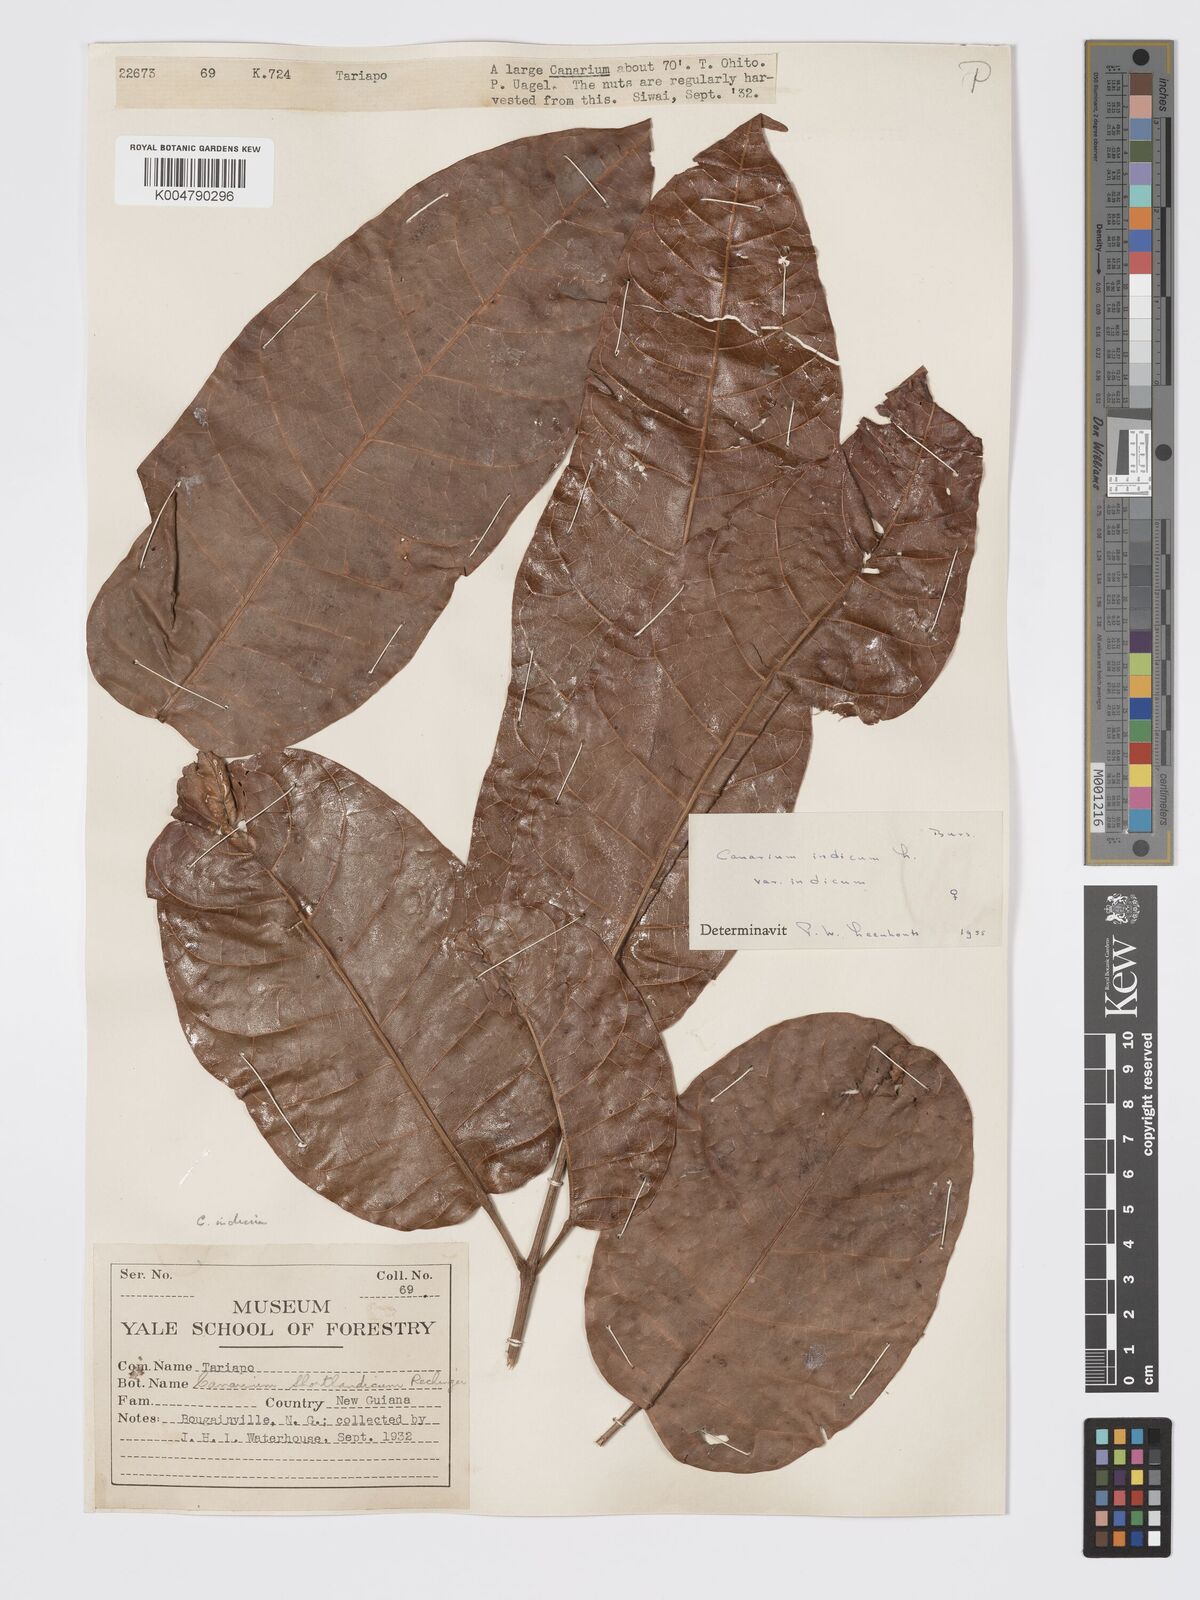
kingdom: Plantae
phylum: Tracheophyta
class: Magnoliopsida
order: Sapindales
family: Burseraceae
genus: Canarium
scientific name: Canarium indicum
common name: Canarium-nut
